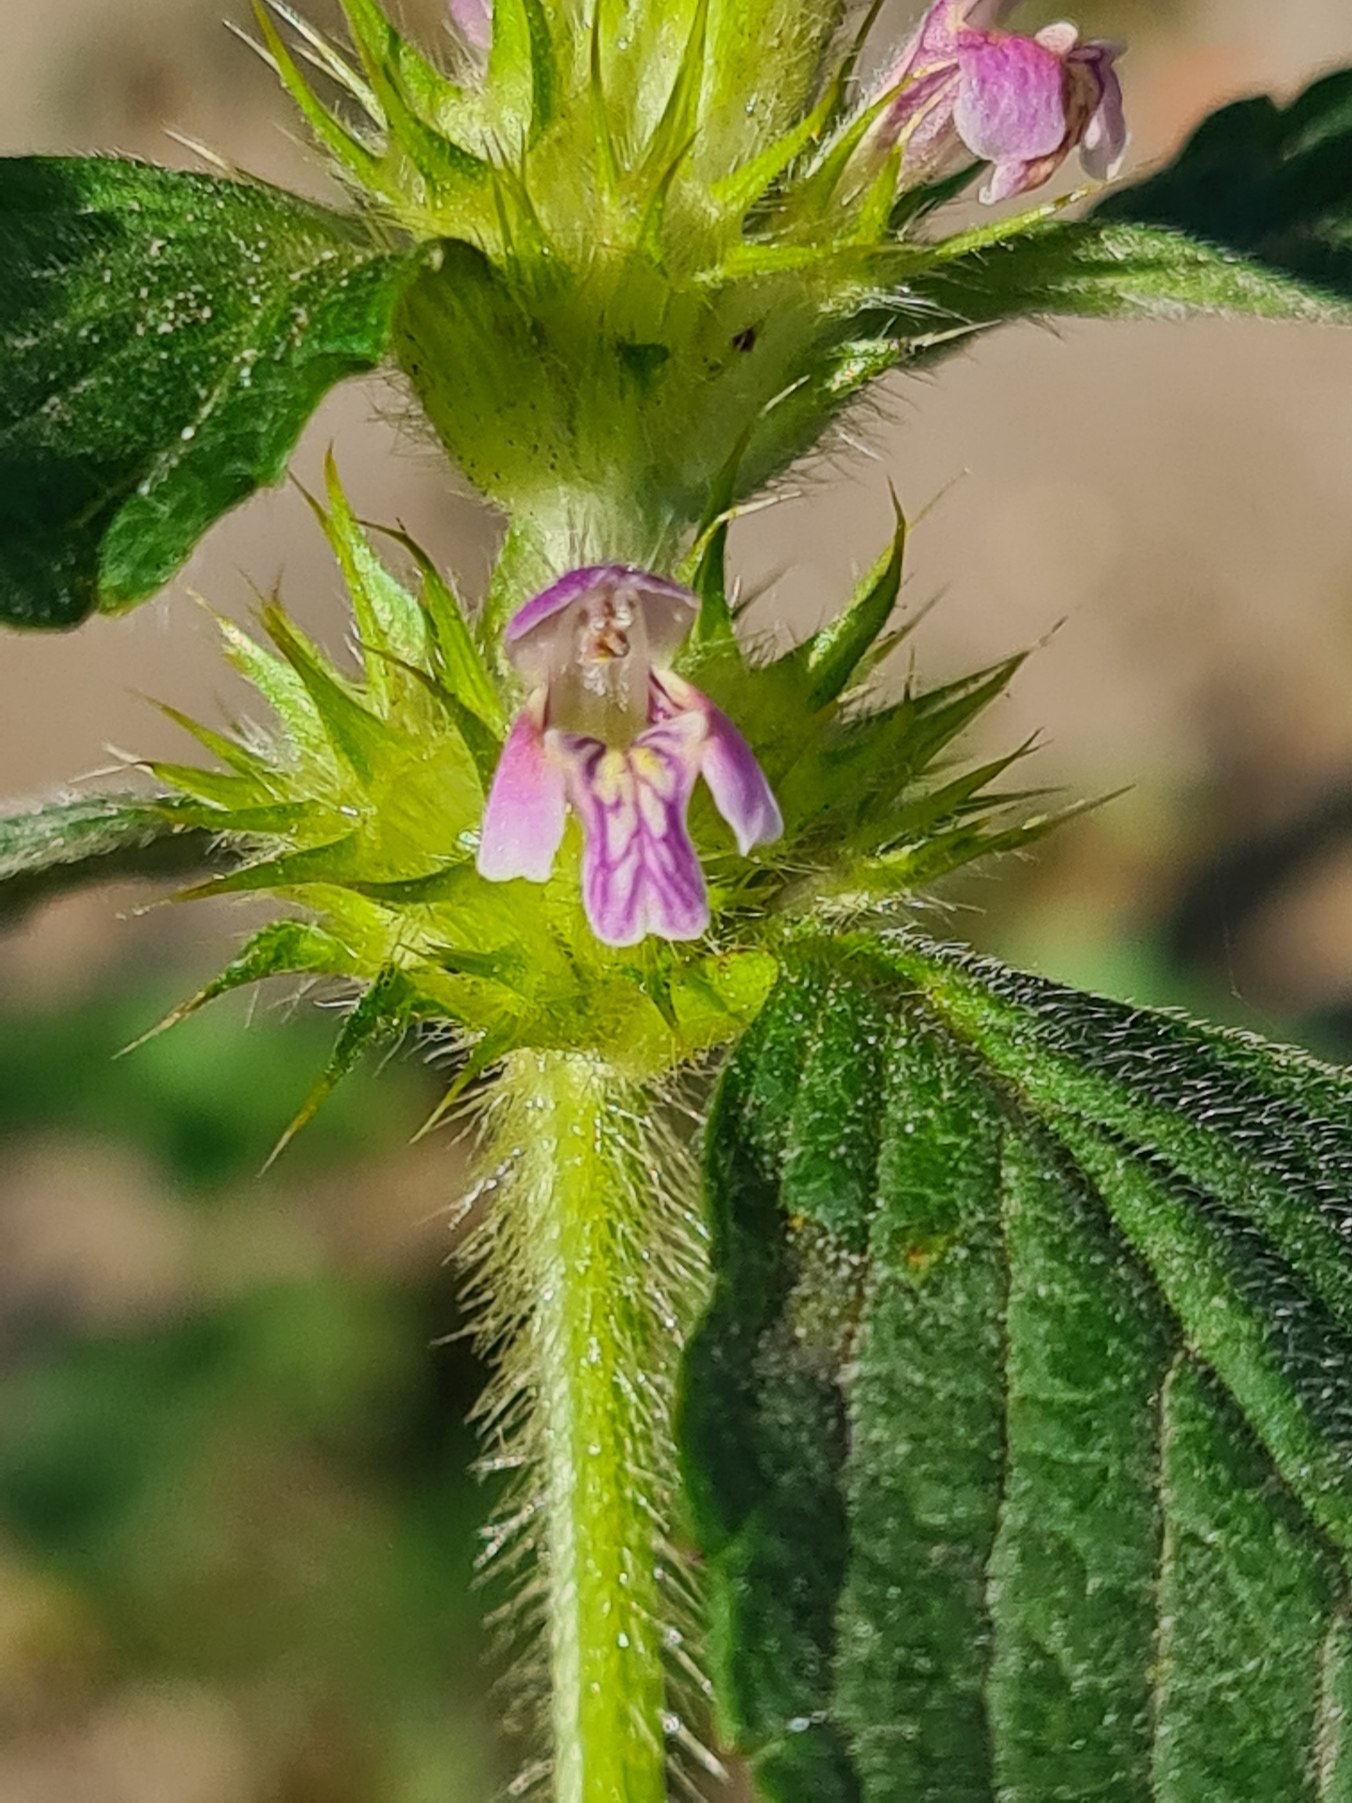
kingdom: Plantae
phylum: Tracheophyta
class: Magnoliopsida
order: Lamiales
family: Lamiaceae
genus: Galeopsis
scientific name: Galeopsis bifida
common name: Skov-hanekro
